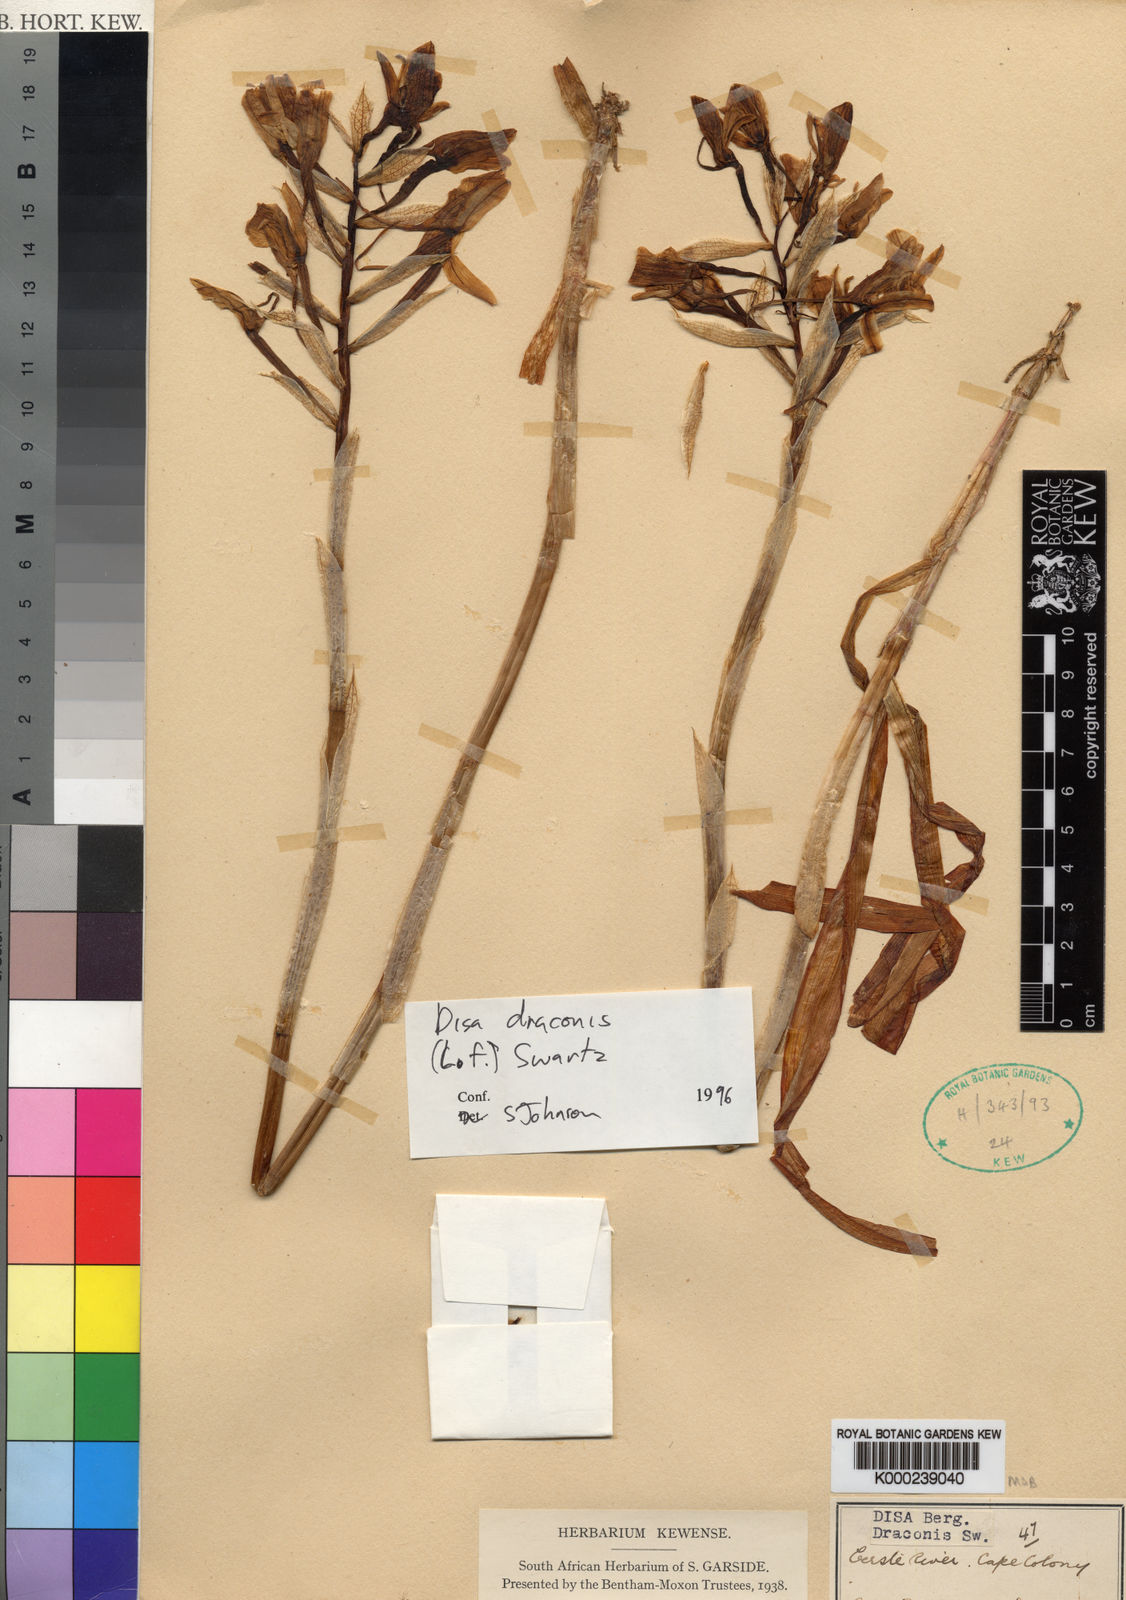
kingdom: Plantae
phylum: Tracheophyta
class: Liliopsida
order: Asparagales
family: Orchidaceae
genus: Disa
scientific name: Disa draconis
